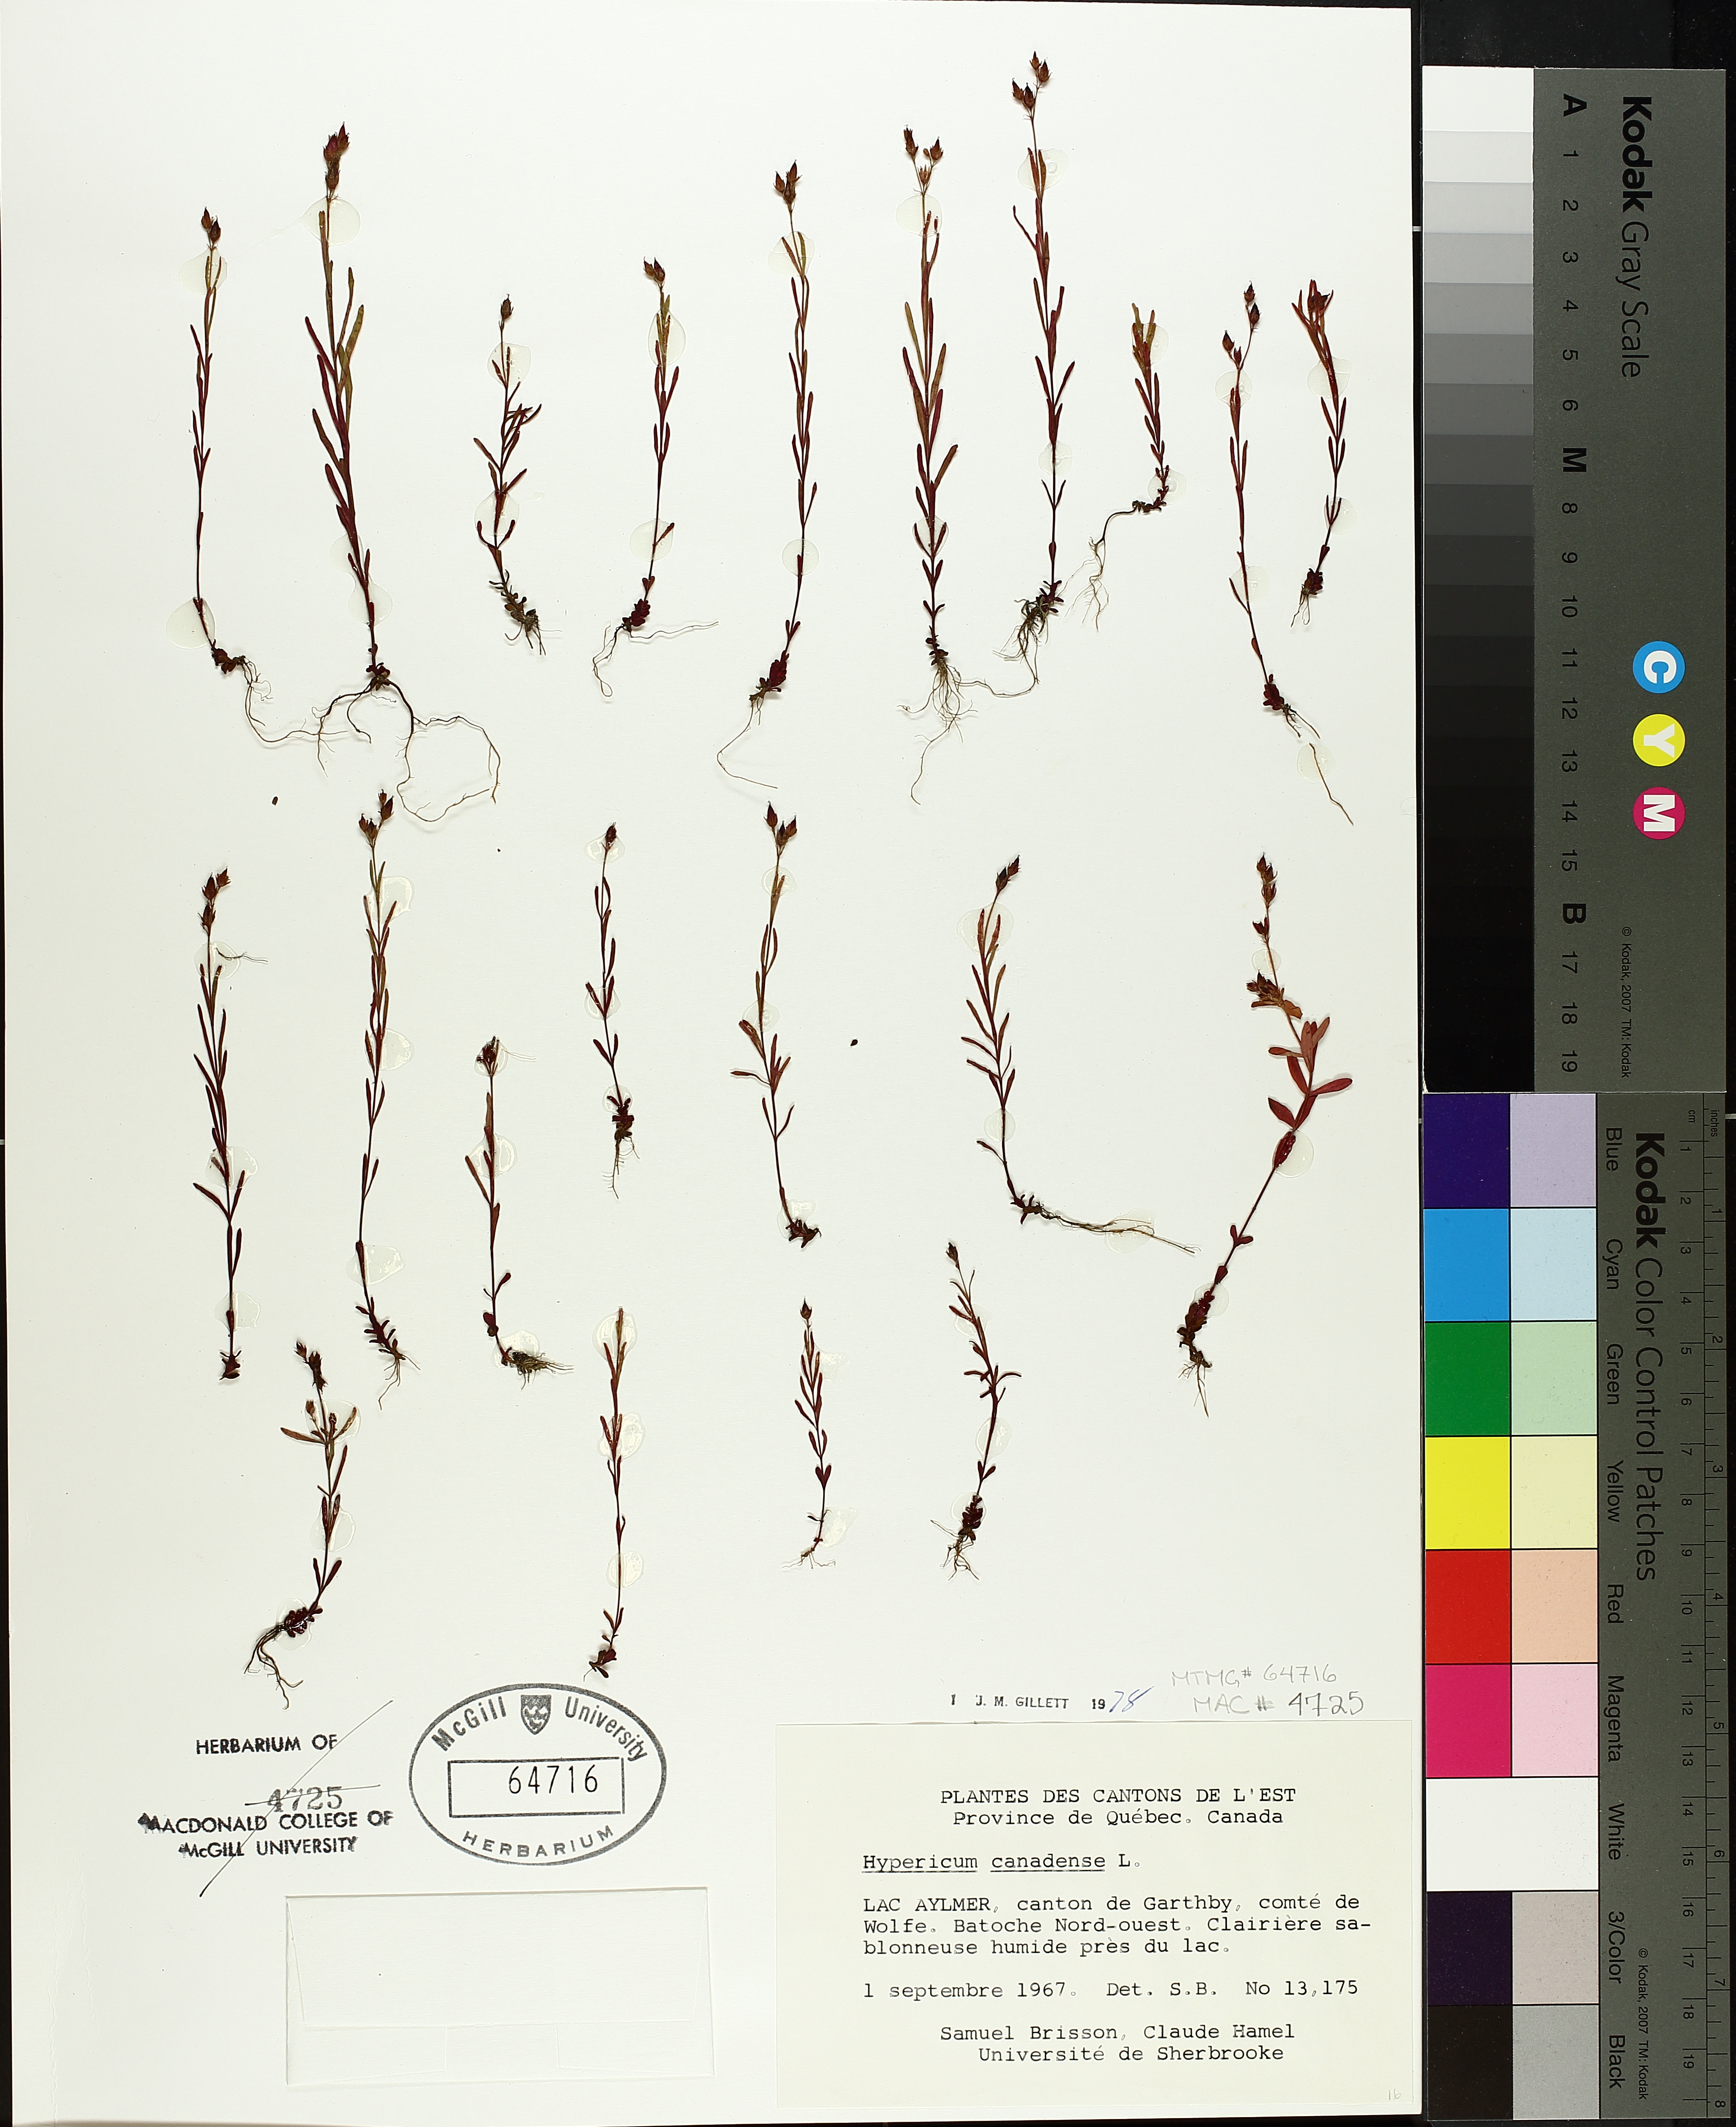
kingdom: Plantae
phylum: Tracheophyta
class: Magnoliopsida
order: Malpighiales
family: Hypericaceae
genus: Hypericum
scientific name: Hypericum canadense
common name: Irish st. john's-wort
